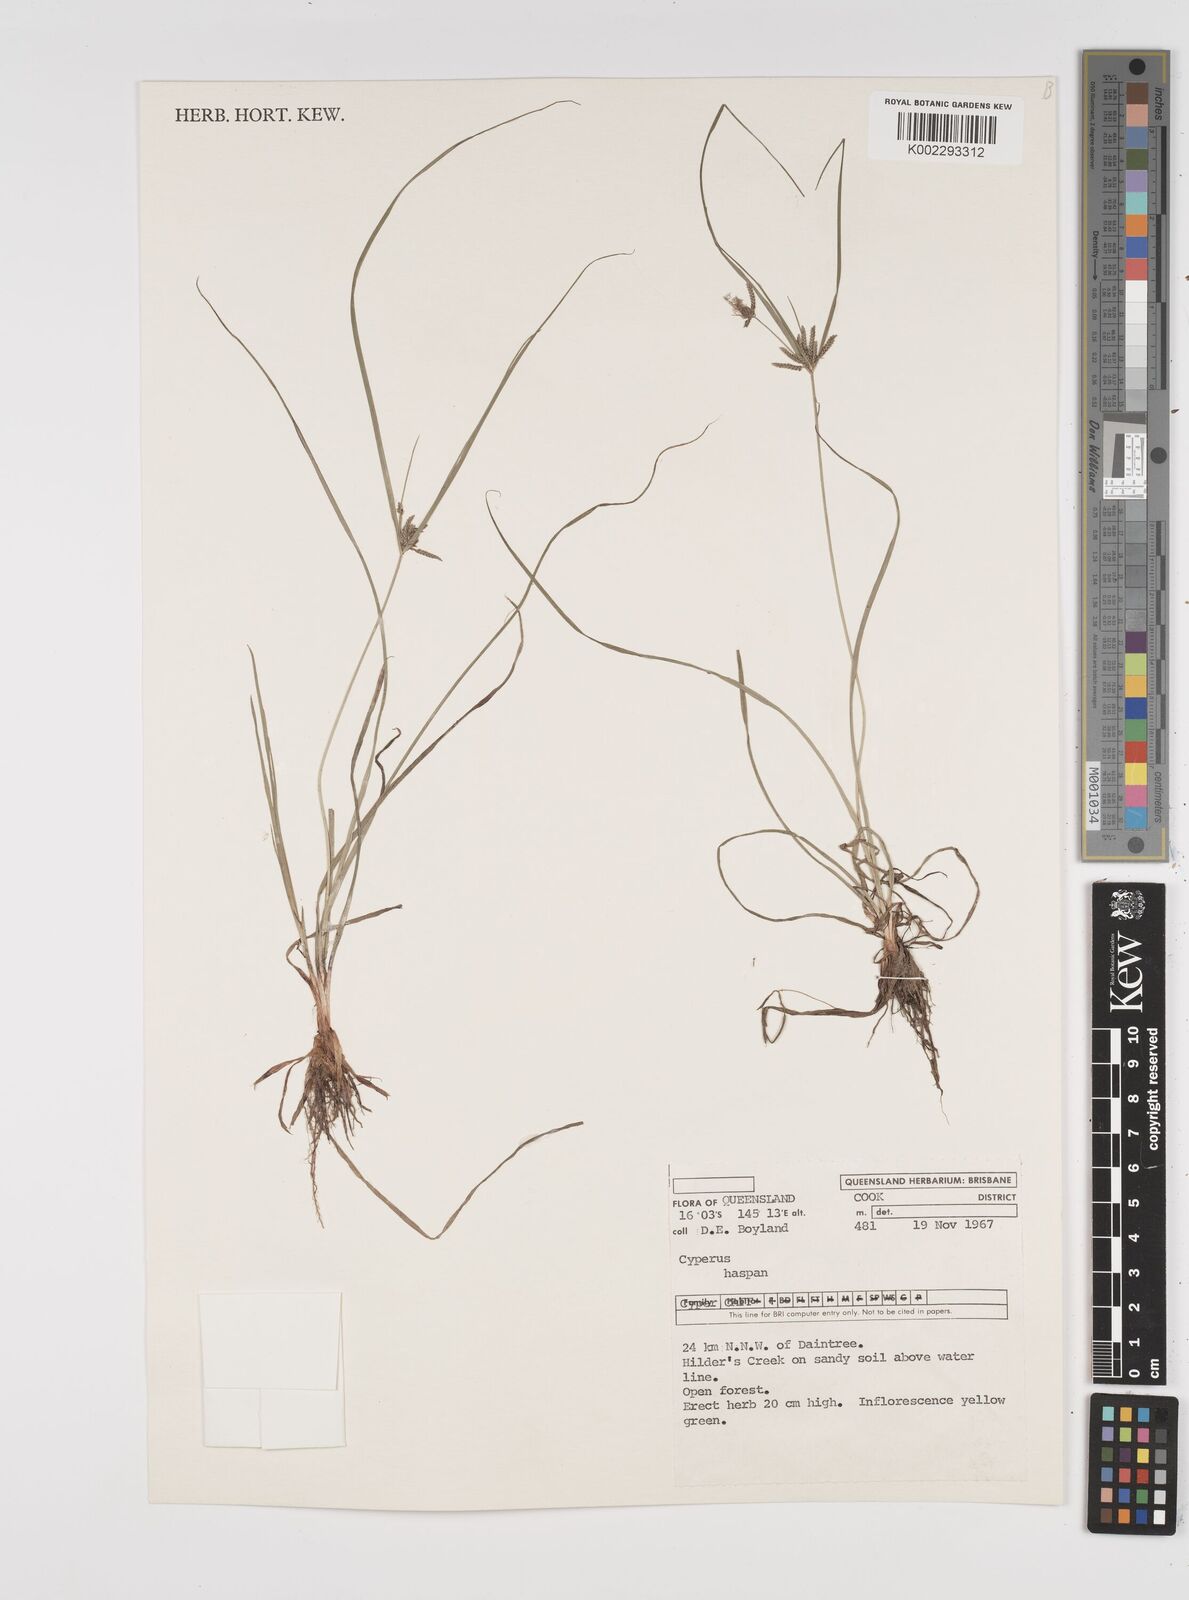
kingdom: Plantae
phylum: Tracheophyta
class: Liliopsida
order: Poales
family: Cyperaceae
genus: Cyperus
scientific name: Cyperus haspan
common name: Haspan flatsedge
